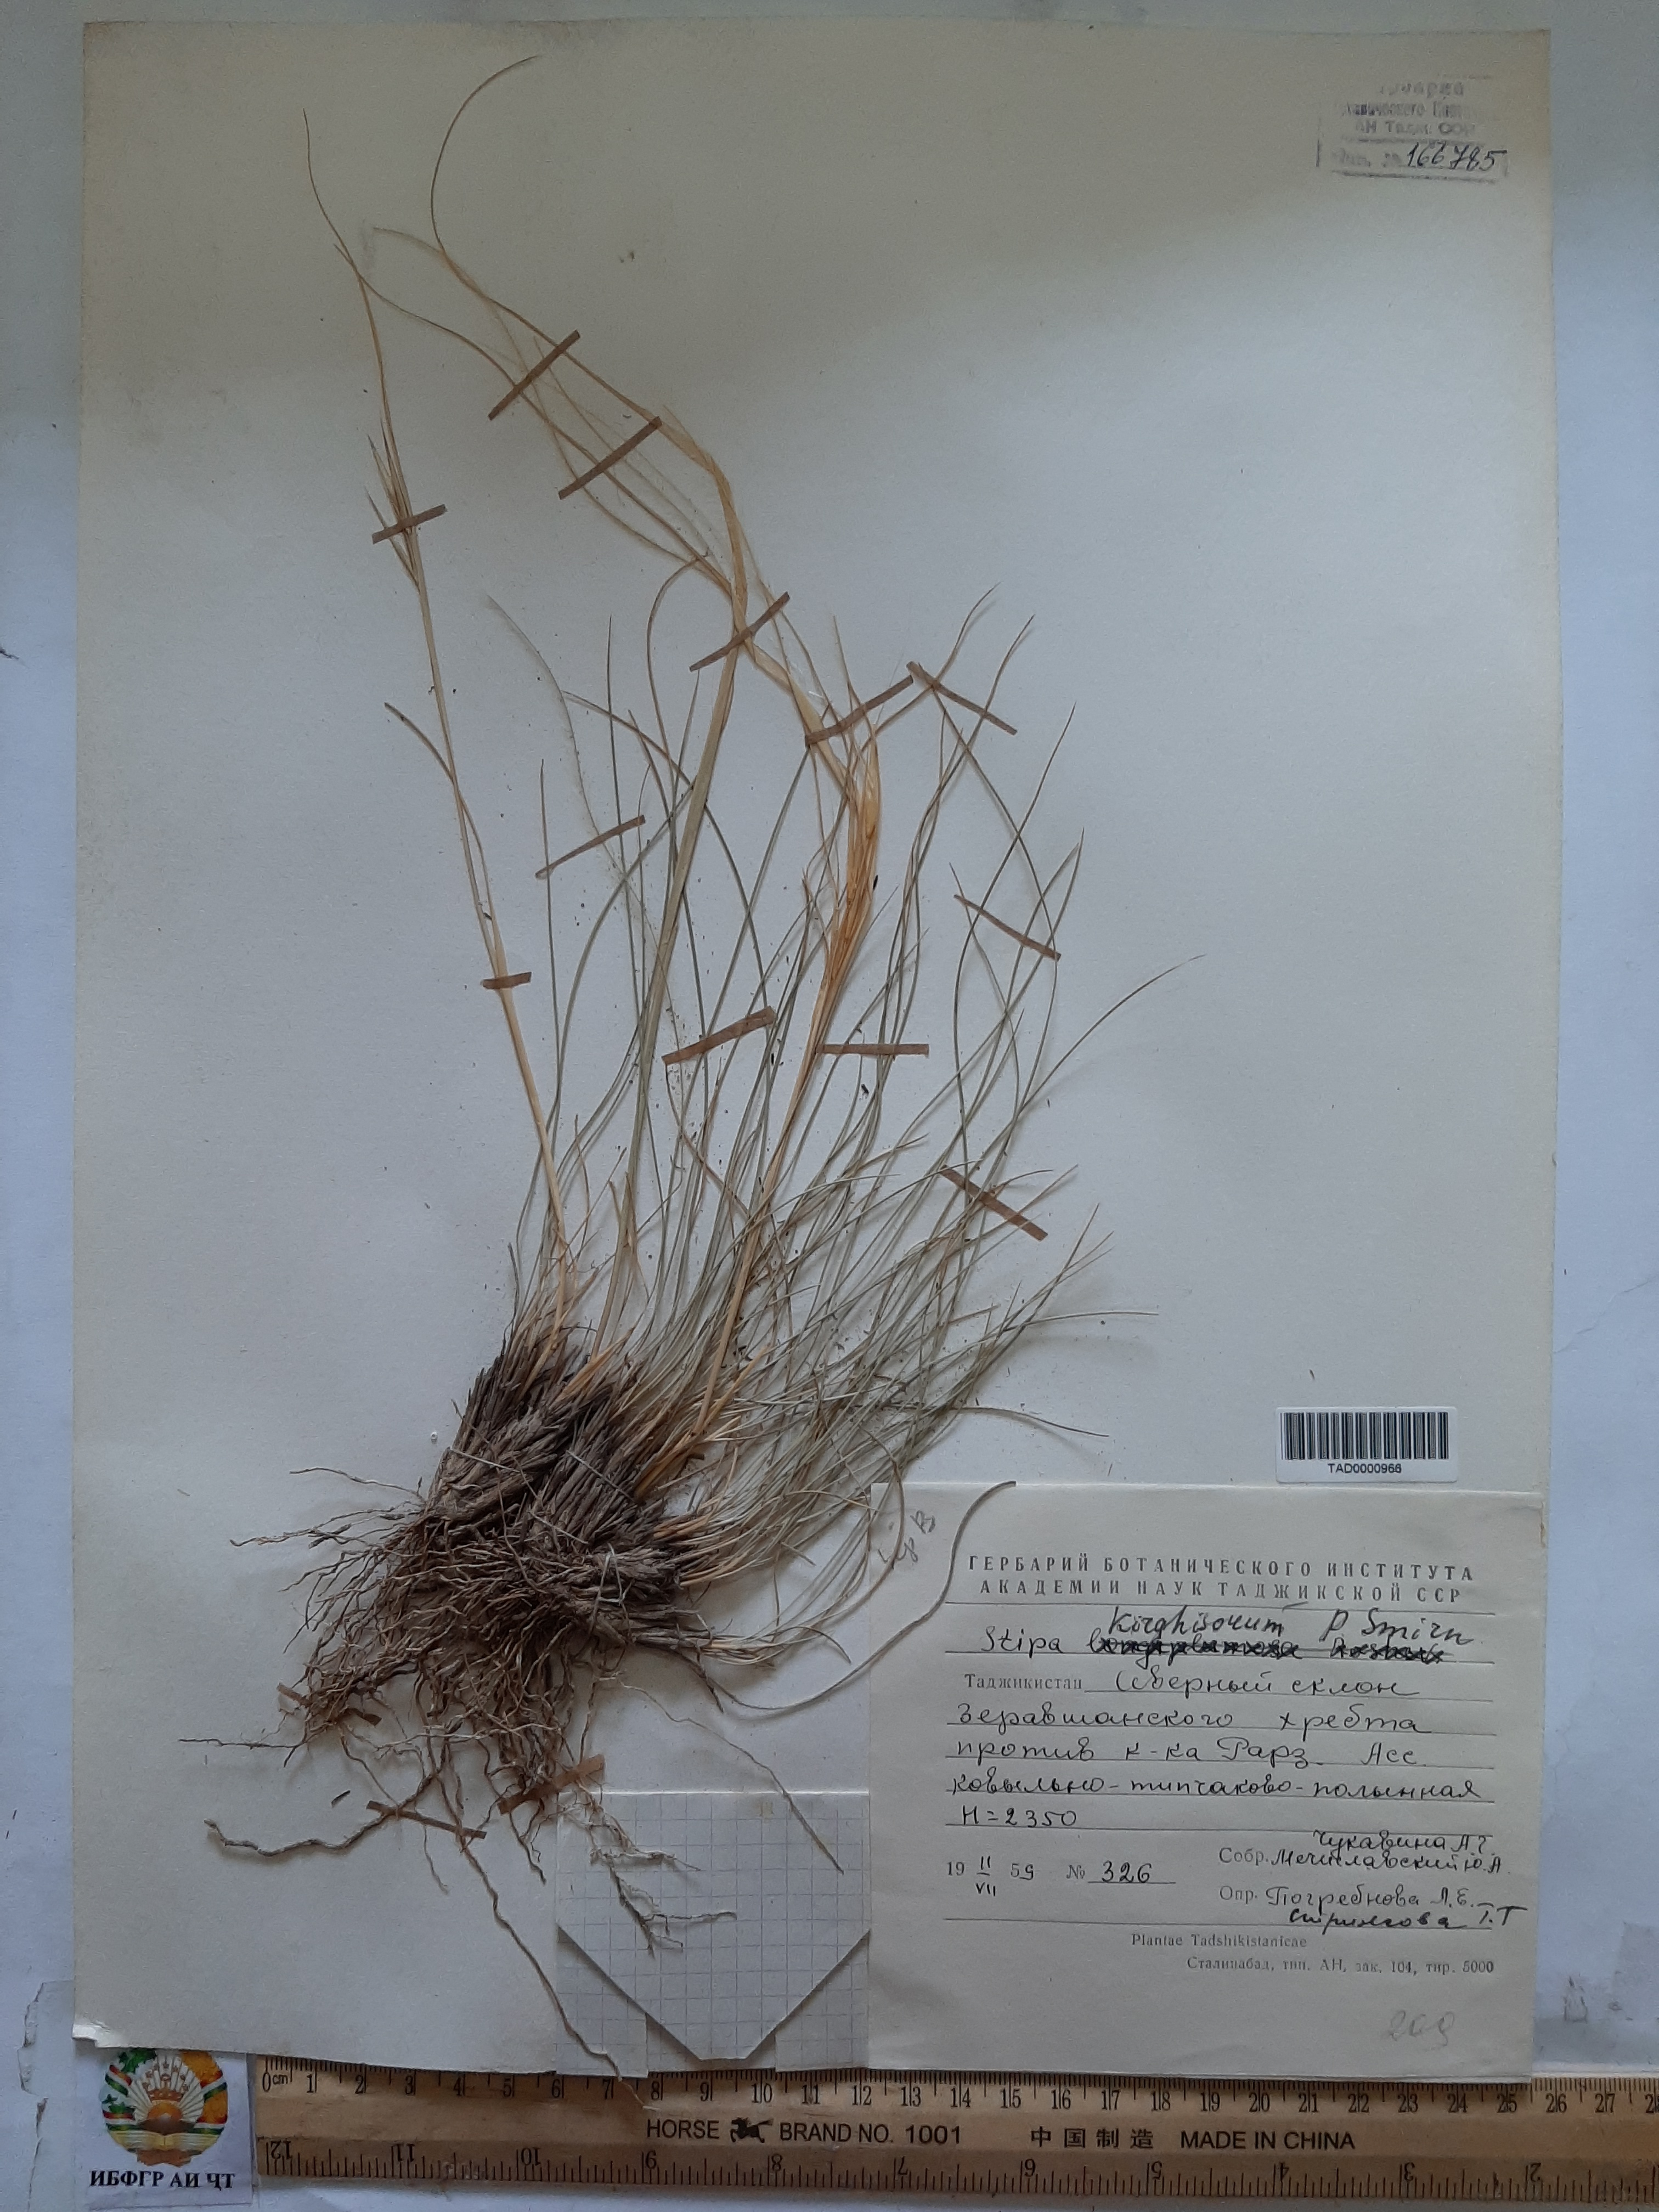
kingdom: Plantae
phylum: Tracheophyta
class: Liliopsida
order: Poales
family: Poaceae
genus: Stipa
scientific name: Stipa kirghisorum
